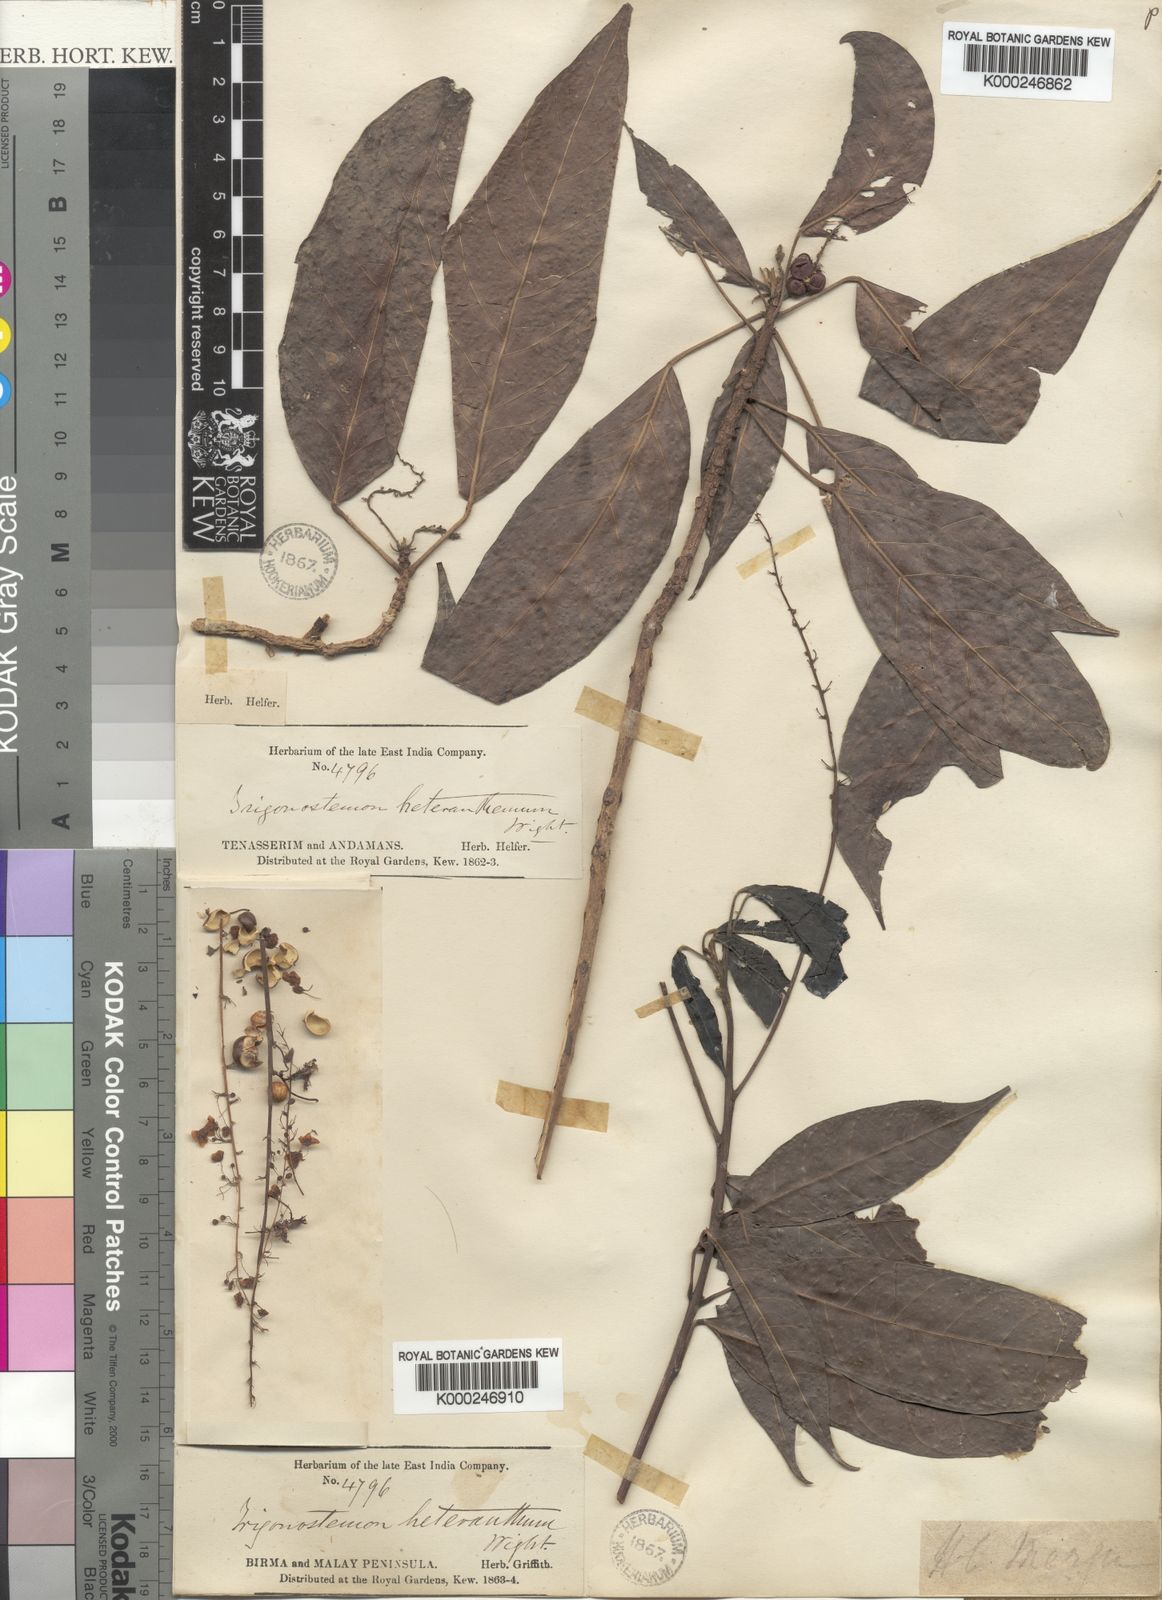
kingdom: Plantae
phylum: Tracheophyta
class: Magnoliopsida
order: Malpighiales
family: Euphorbiaceae
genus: Trigonostemon
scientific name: Trigonostemon heteranthus
